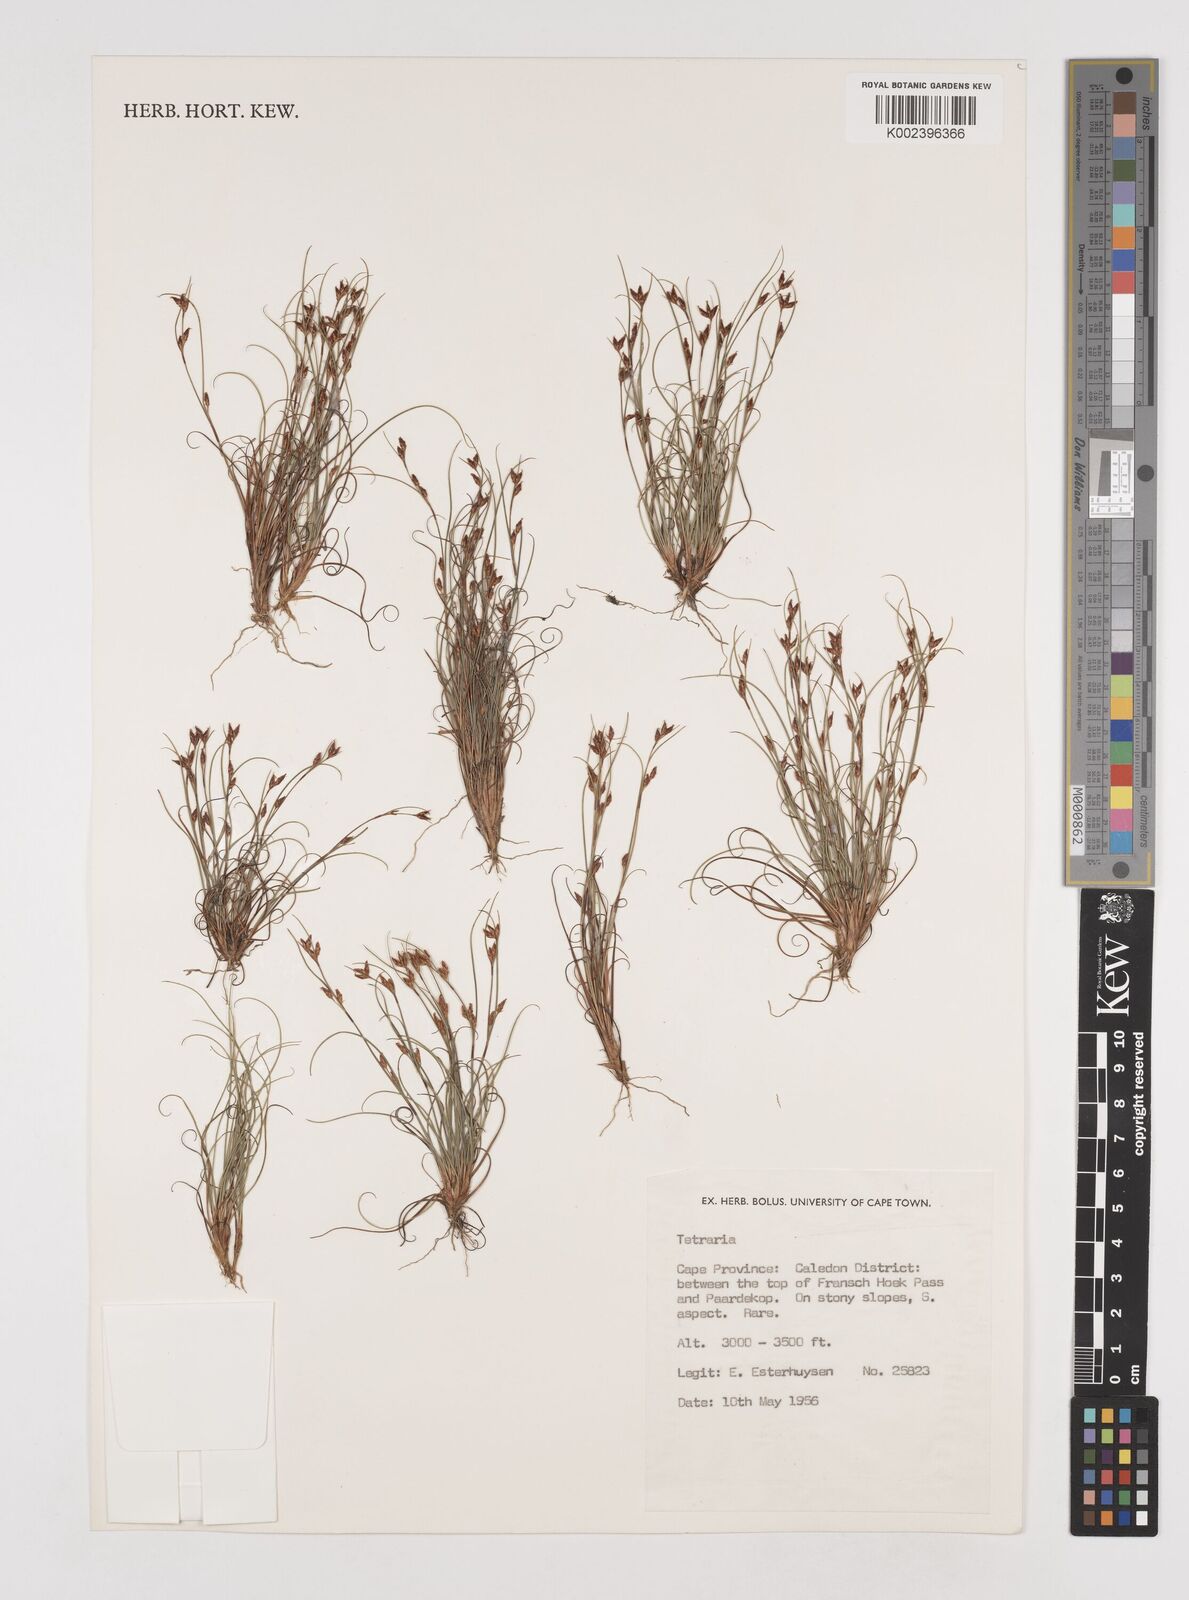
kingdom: Plantae
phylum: Tracheophyta
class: Liliopsida
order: Poales
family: Cyperaceae
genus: Tetraria
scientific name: Tetraria
